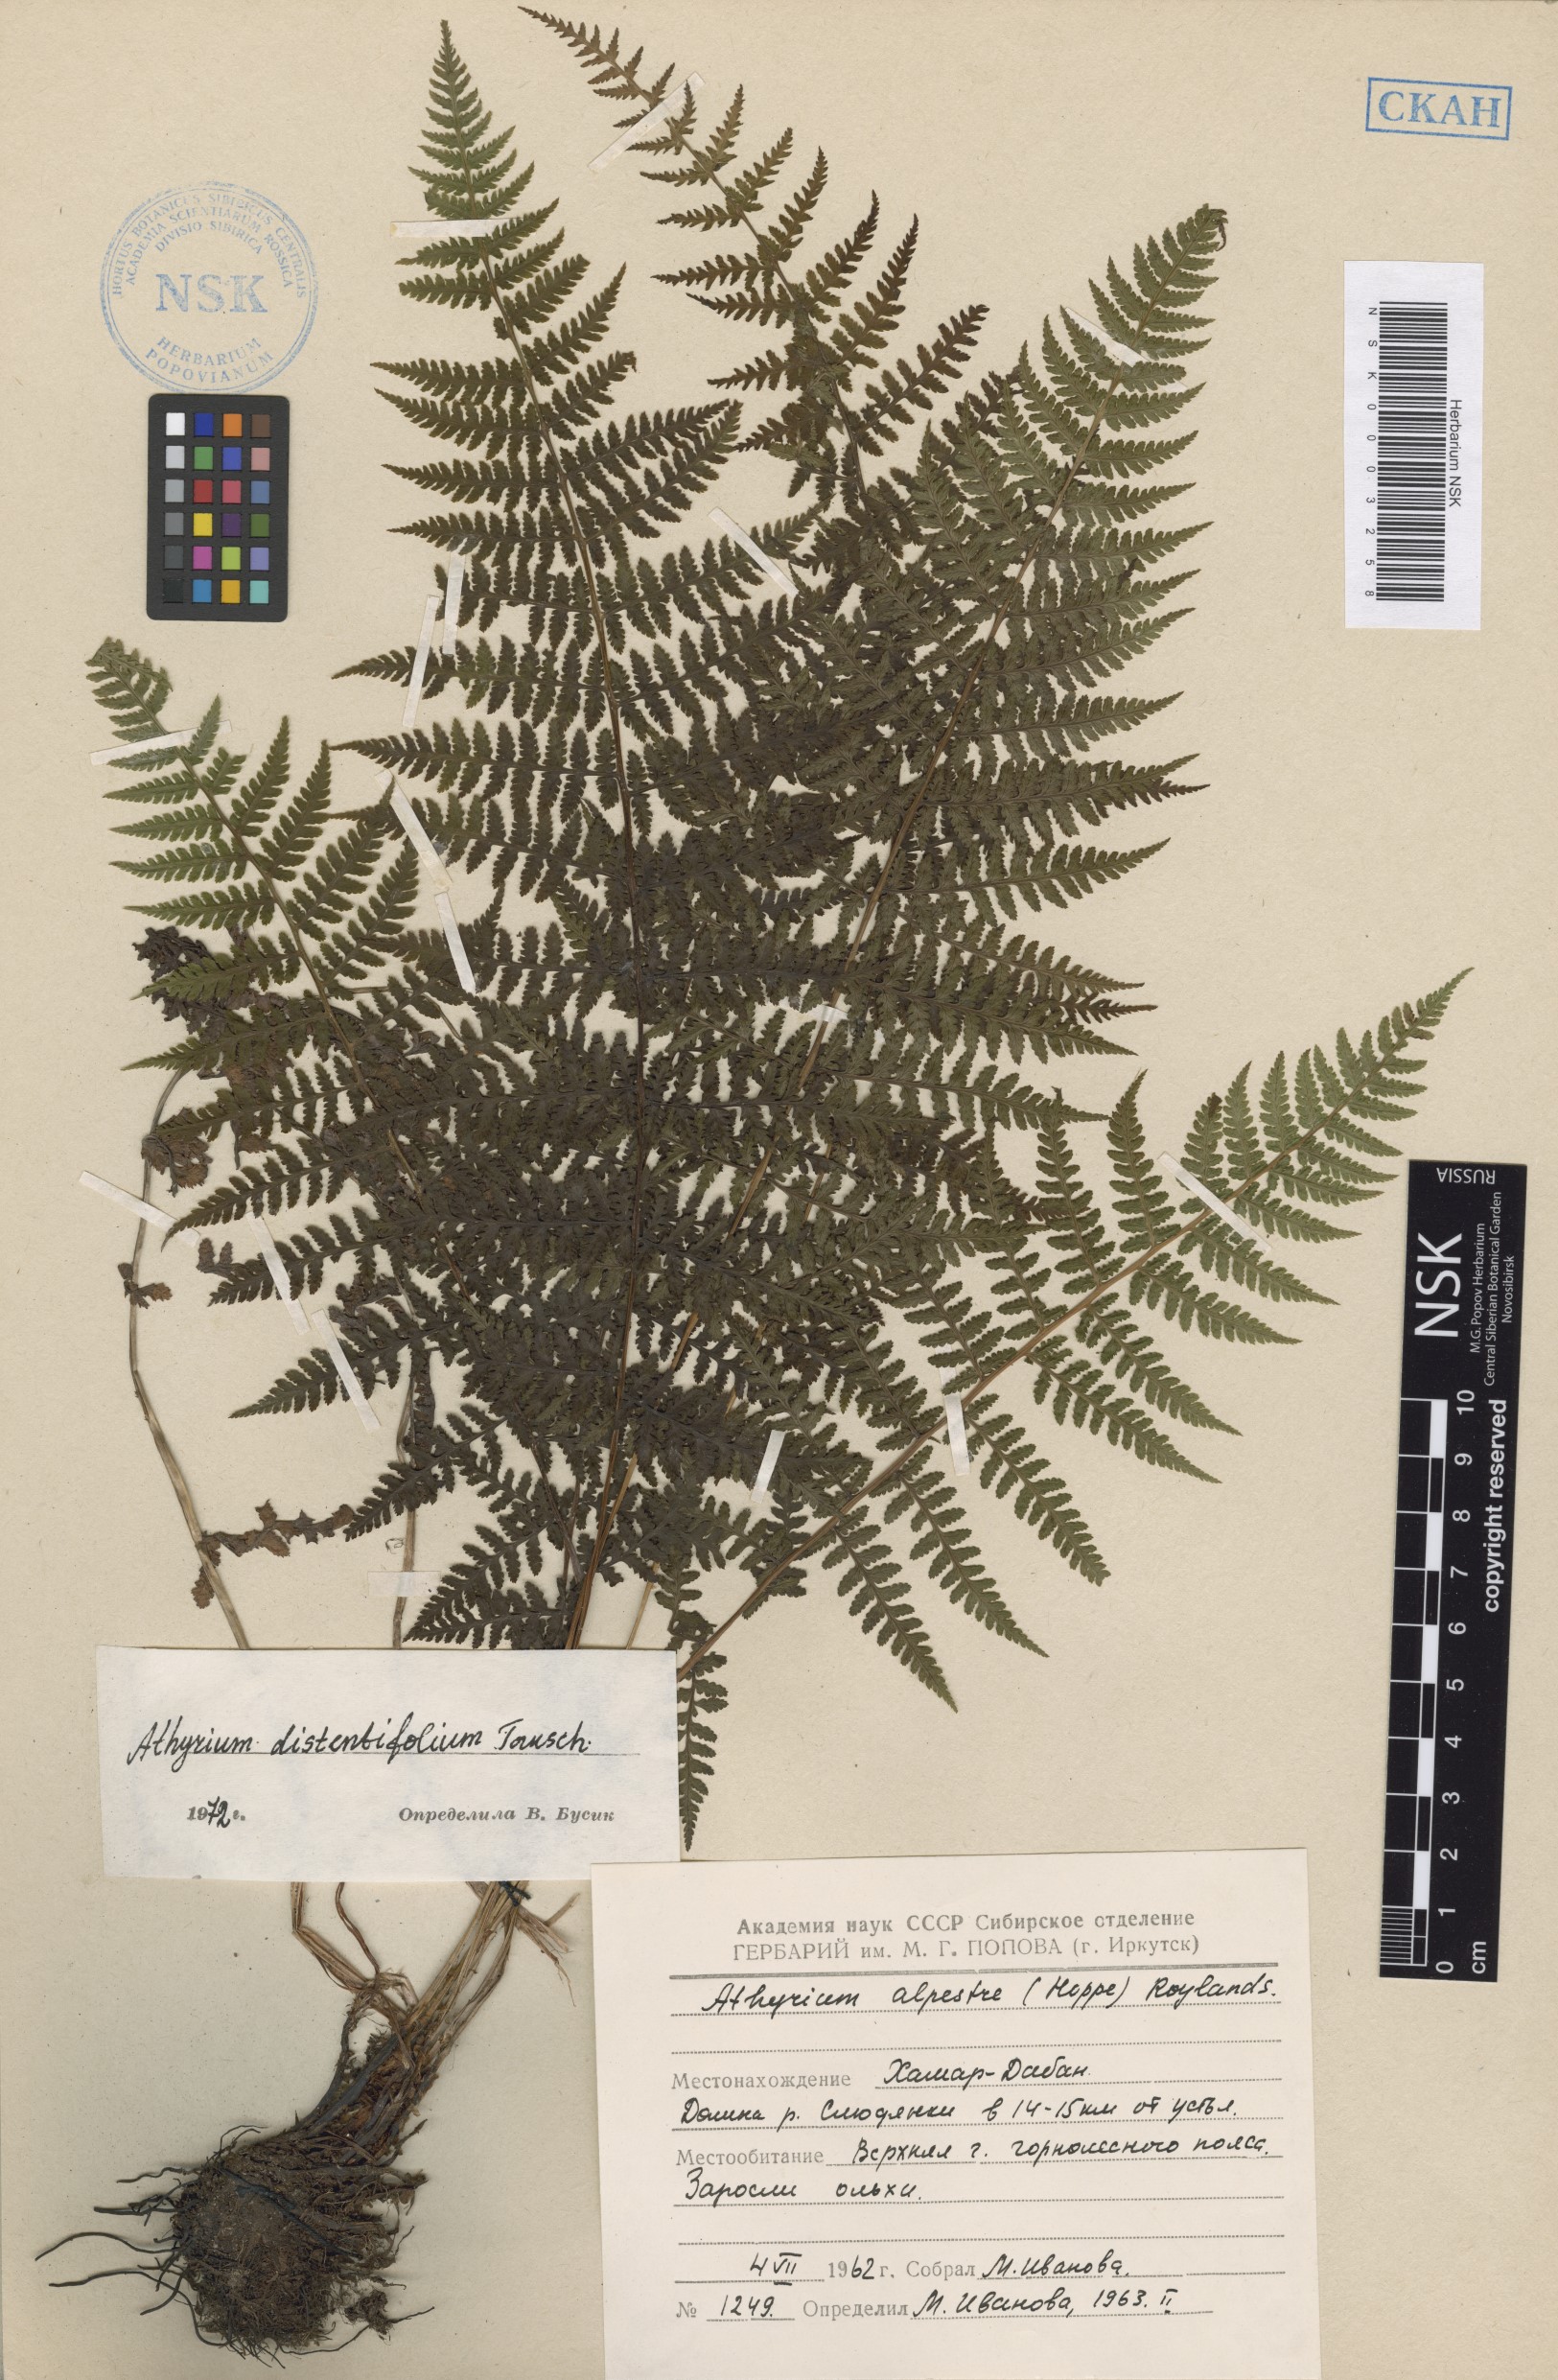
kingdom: Plantae
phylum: Tracheophyta
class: Polypodiopsida
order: Polypodiales
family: Athyriaceae
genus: Pseudathyrium
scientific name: Pseudathyrium alpestre
